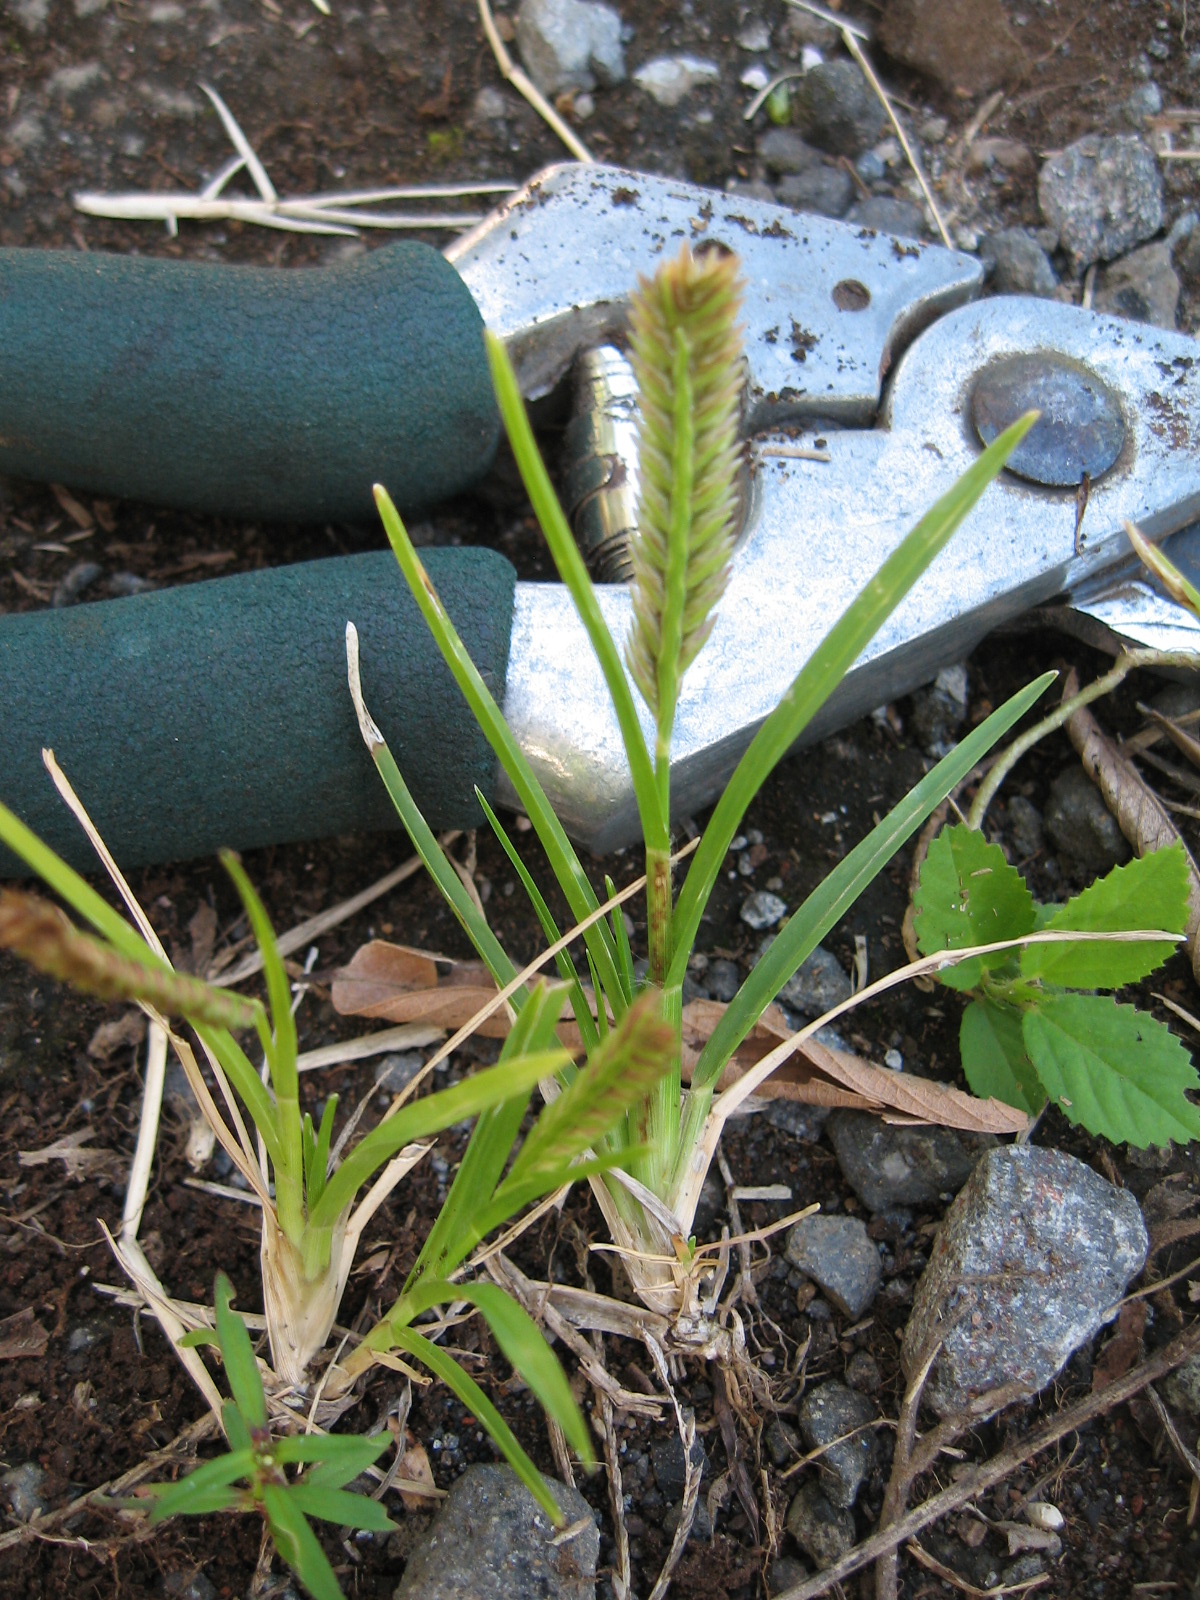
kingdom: Plantae
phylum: Tracheophyta
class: Liliopsida
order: Poales
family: Poaceae
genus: Eleusine
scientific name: Eleusine indica
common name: Yard-grass
